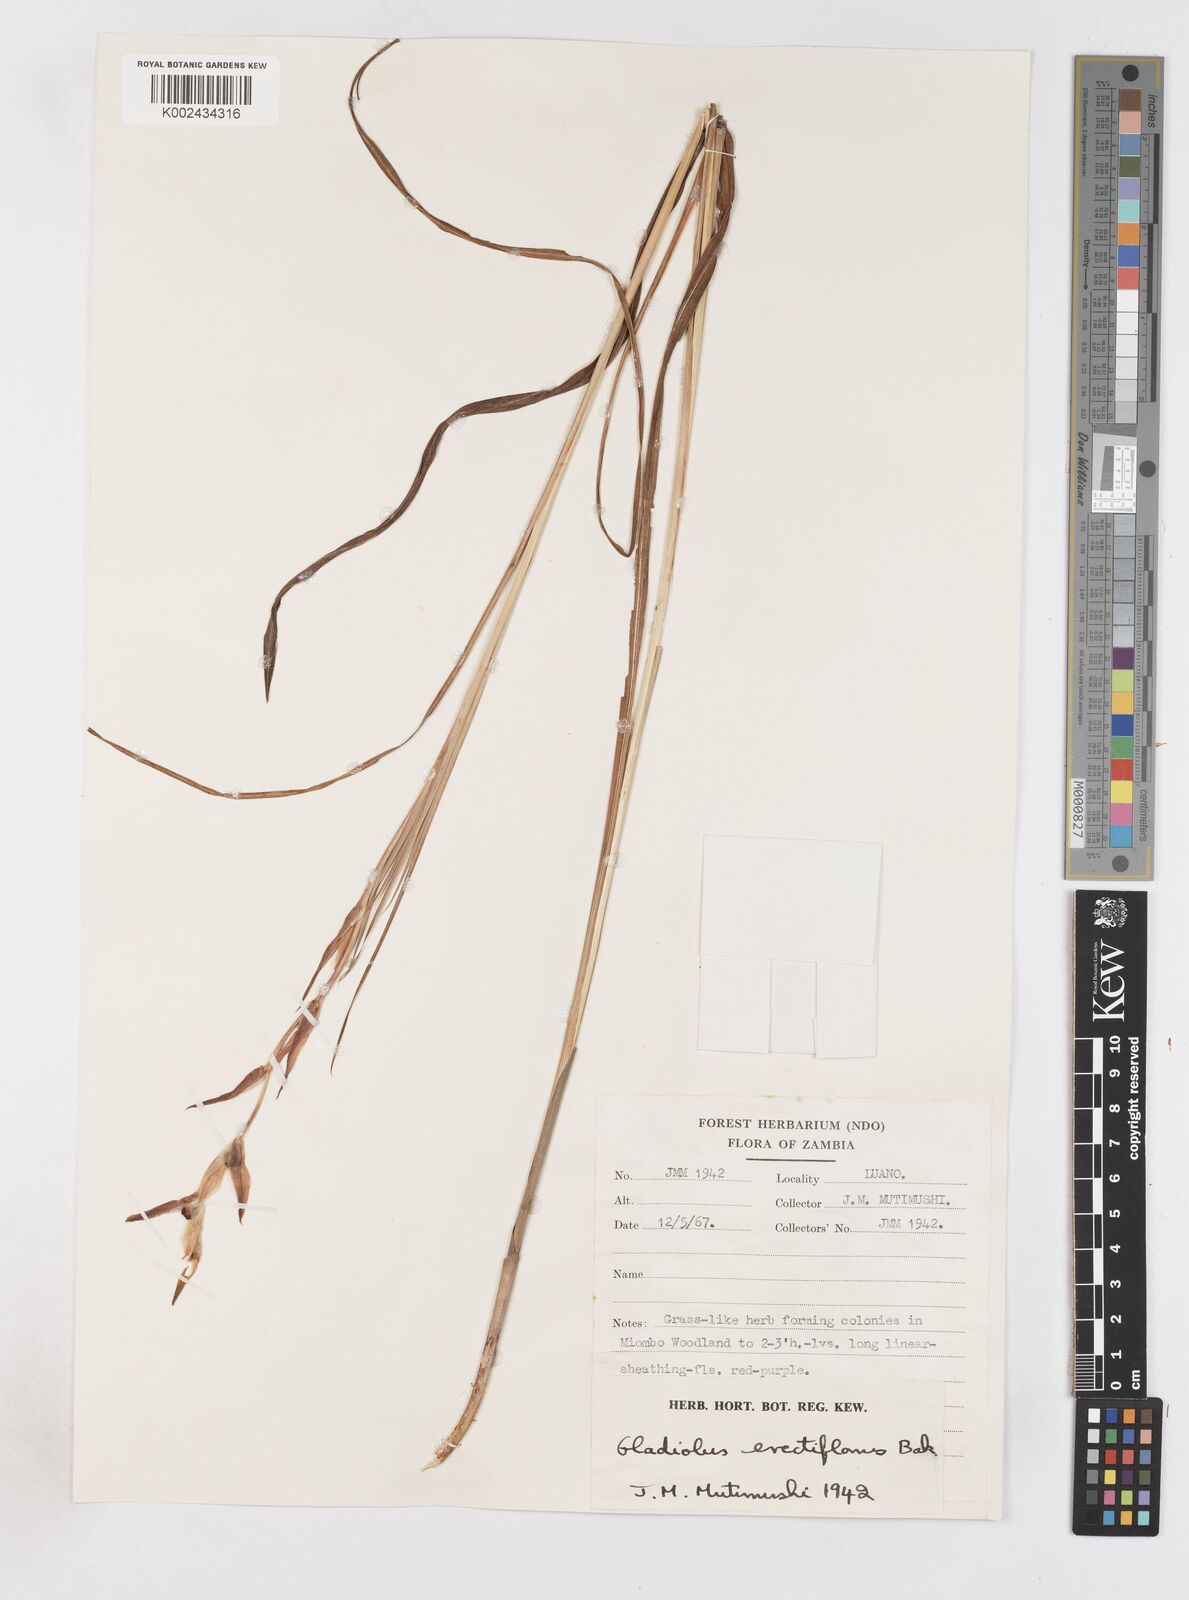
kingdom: Plantae
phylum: Tracheophyta
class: Liliopsida
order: Asparagales
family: Iridaceae
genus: Gladiolus
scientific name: Gladiolus erectiflorus
